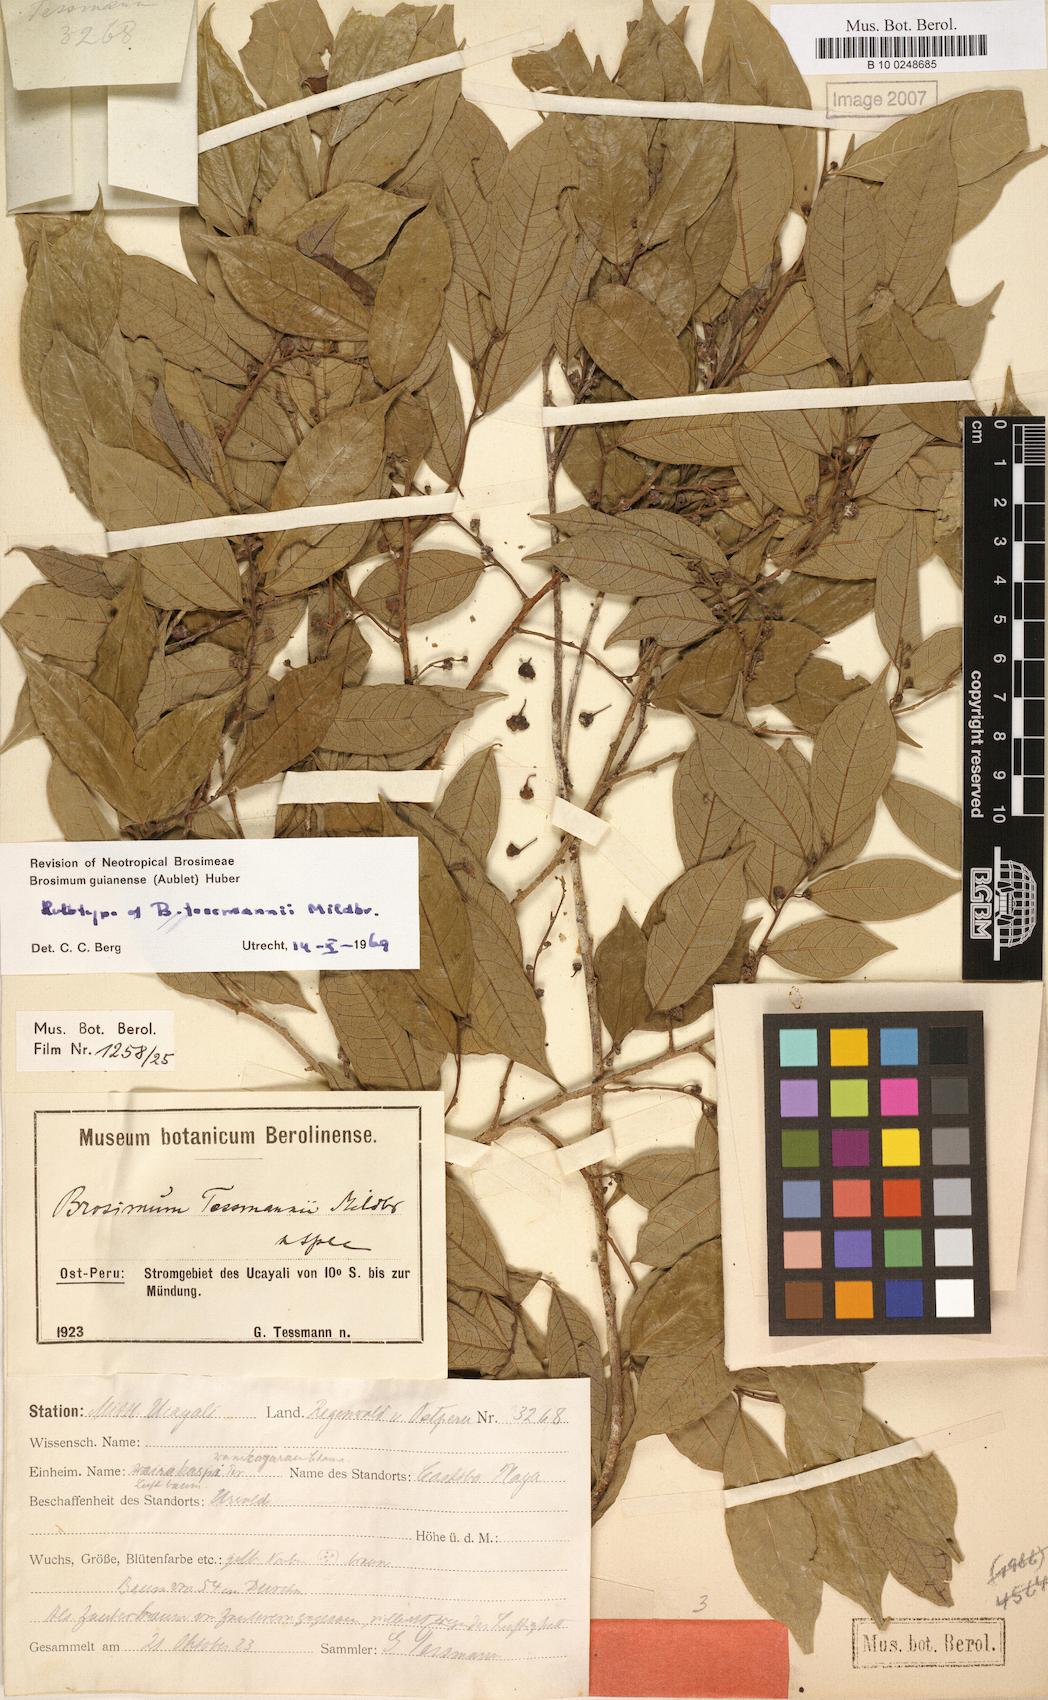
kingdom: Plantae
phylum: Tracheophyta
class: Magnoliopsida
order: Rosales
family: Moraceae
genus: Brosimum
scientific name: Brosimum guianense
